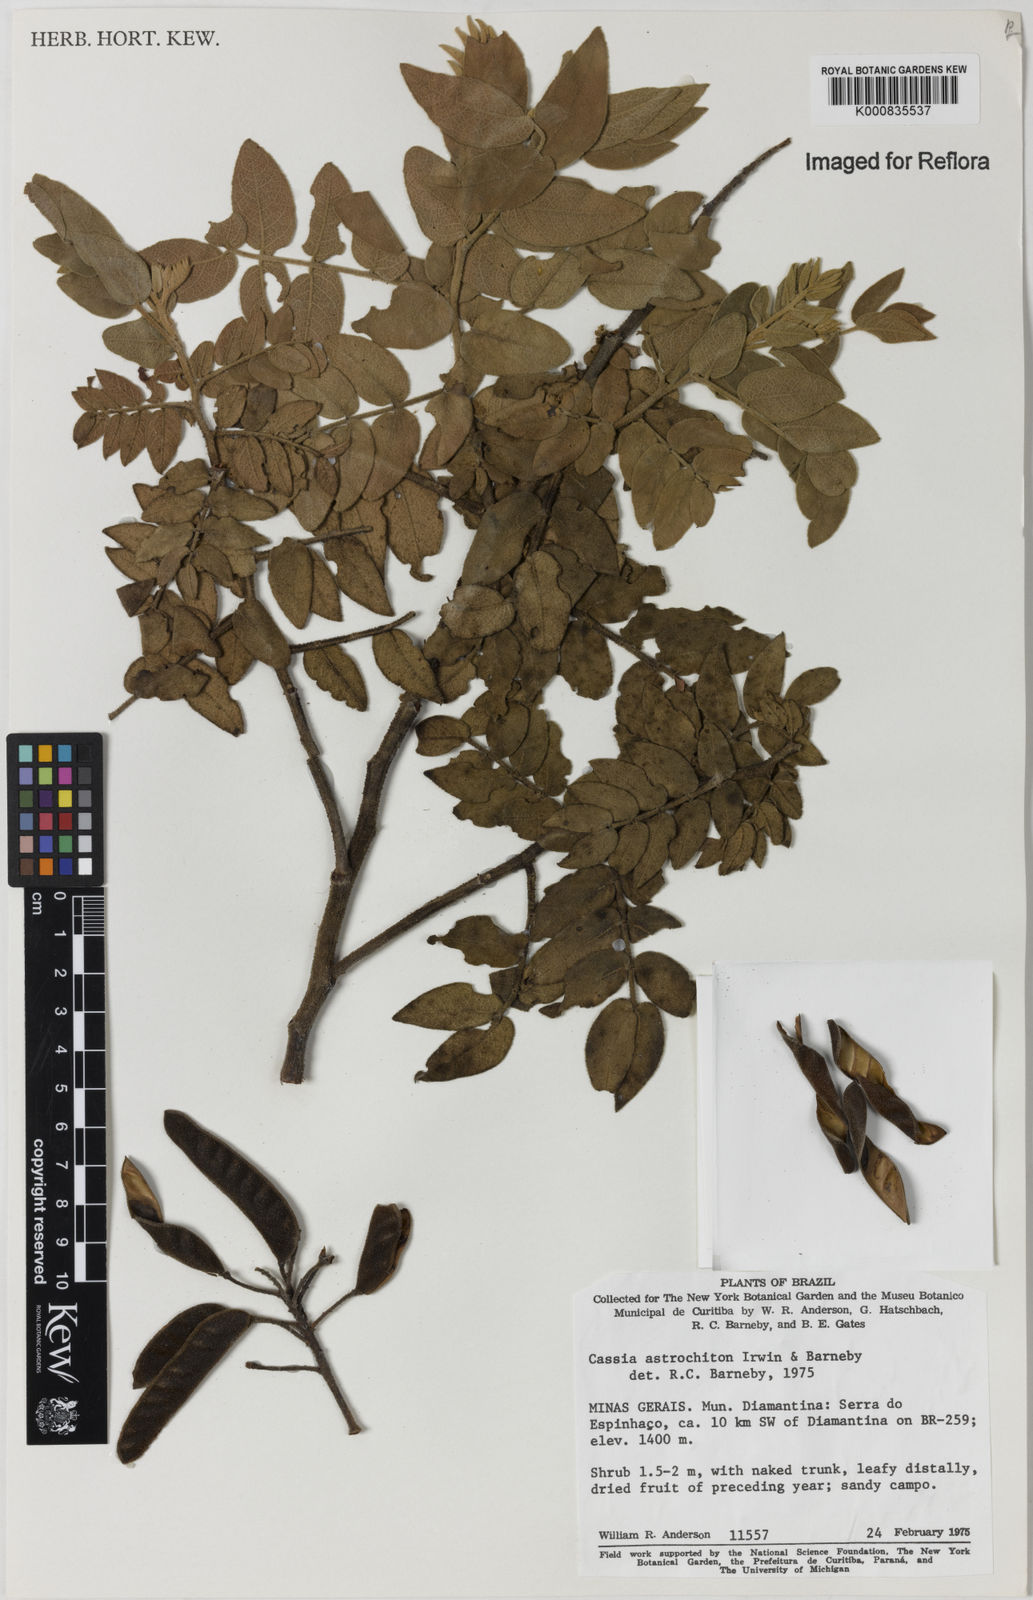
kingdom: Plantae
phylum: Tracheophyta
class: Magnoliopsida
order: Fabales
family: Fabaceae
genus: Chamaecrista
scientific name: Chamaecrista astrochiton
